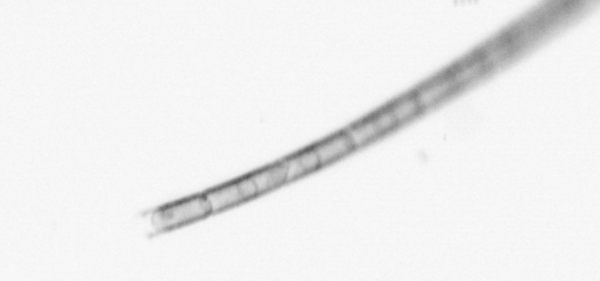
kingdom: Chromista
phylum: Ochrophyta
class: Bacillariophyceae
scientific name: Bacillariophyceae
